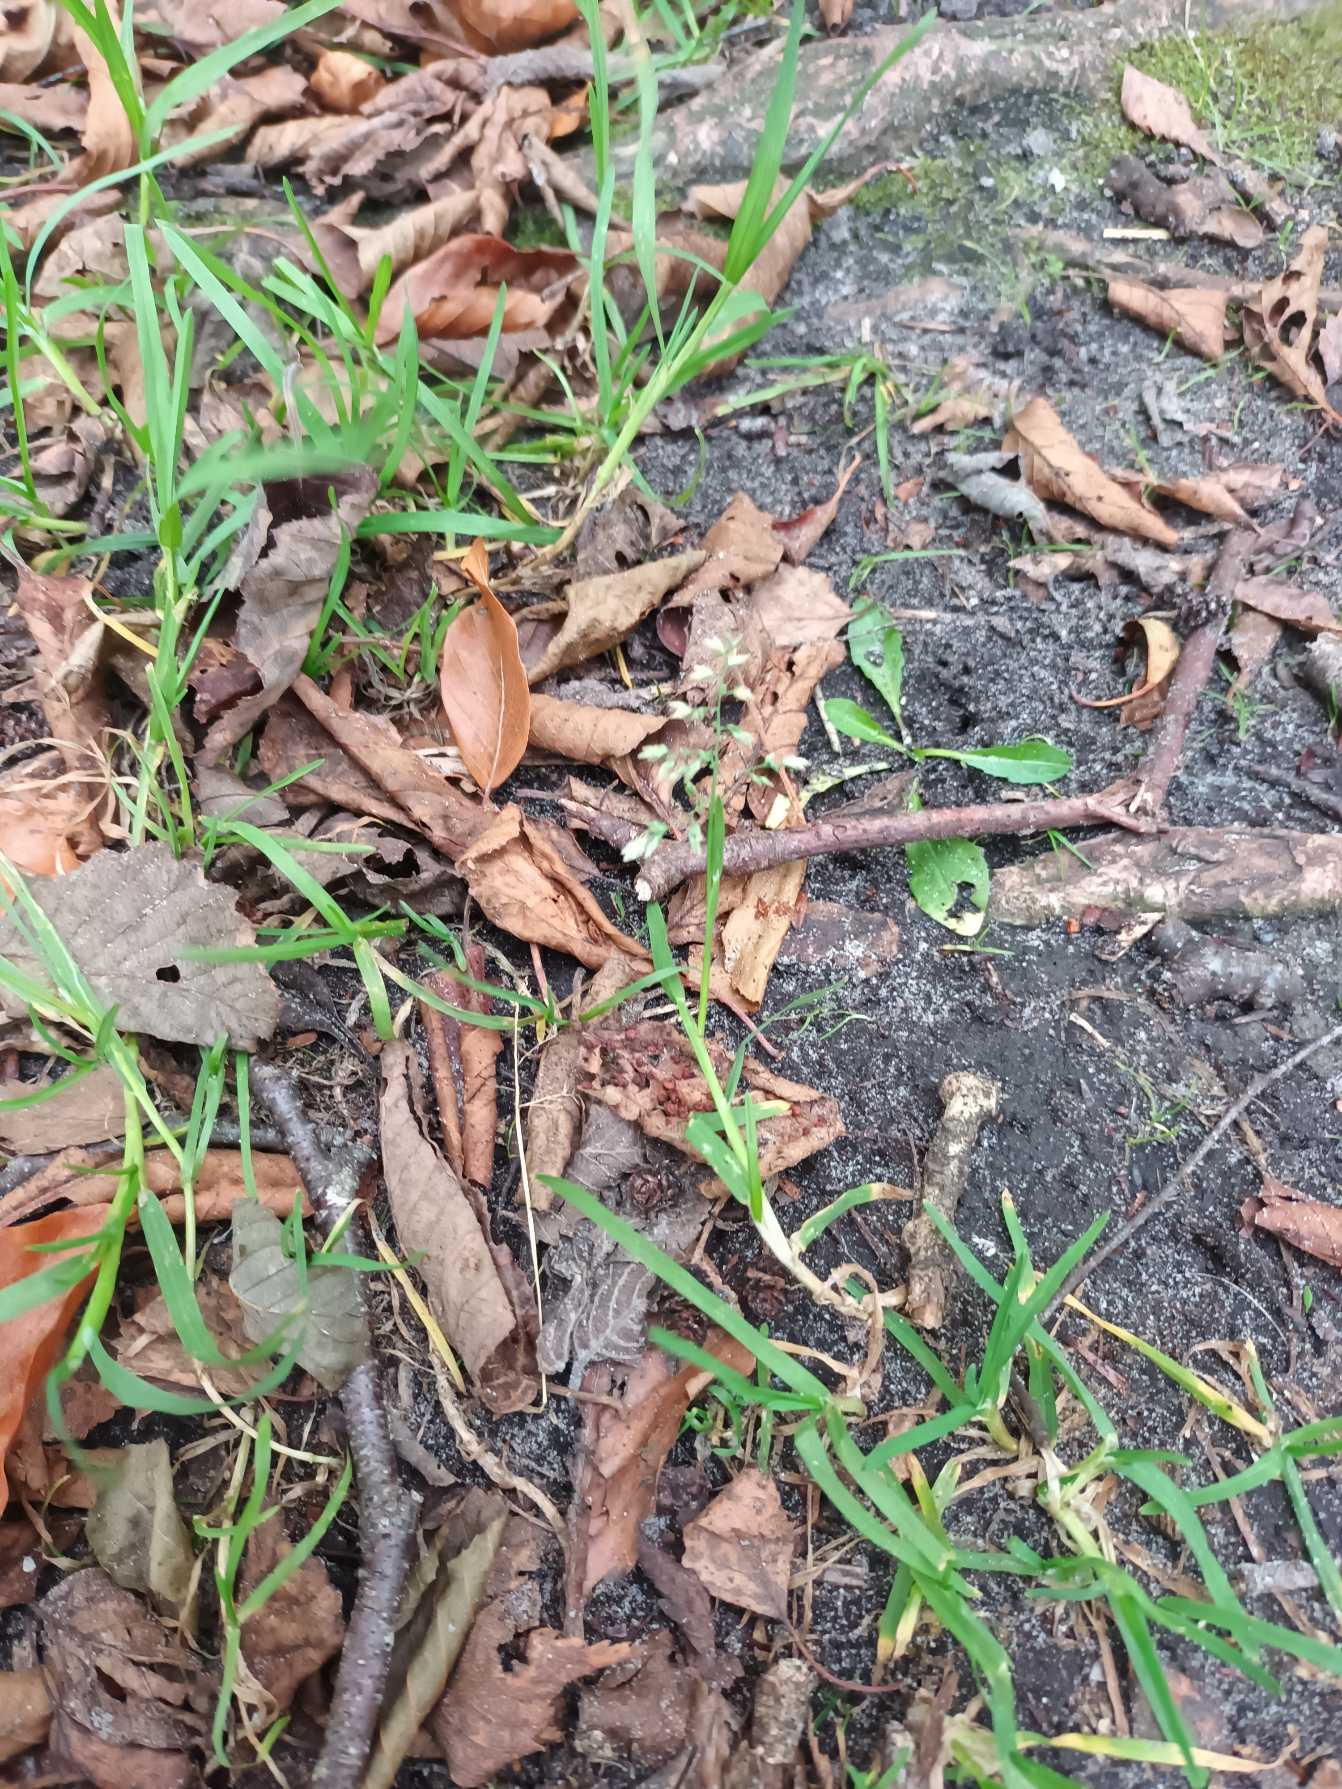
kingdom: Plantae
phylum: Tracheophyta
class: Liliopsida
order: Poales
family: Poaceae
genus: Poa
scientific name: Poa annua
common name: Enårig rapgræs
